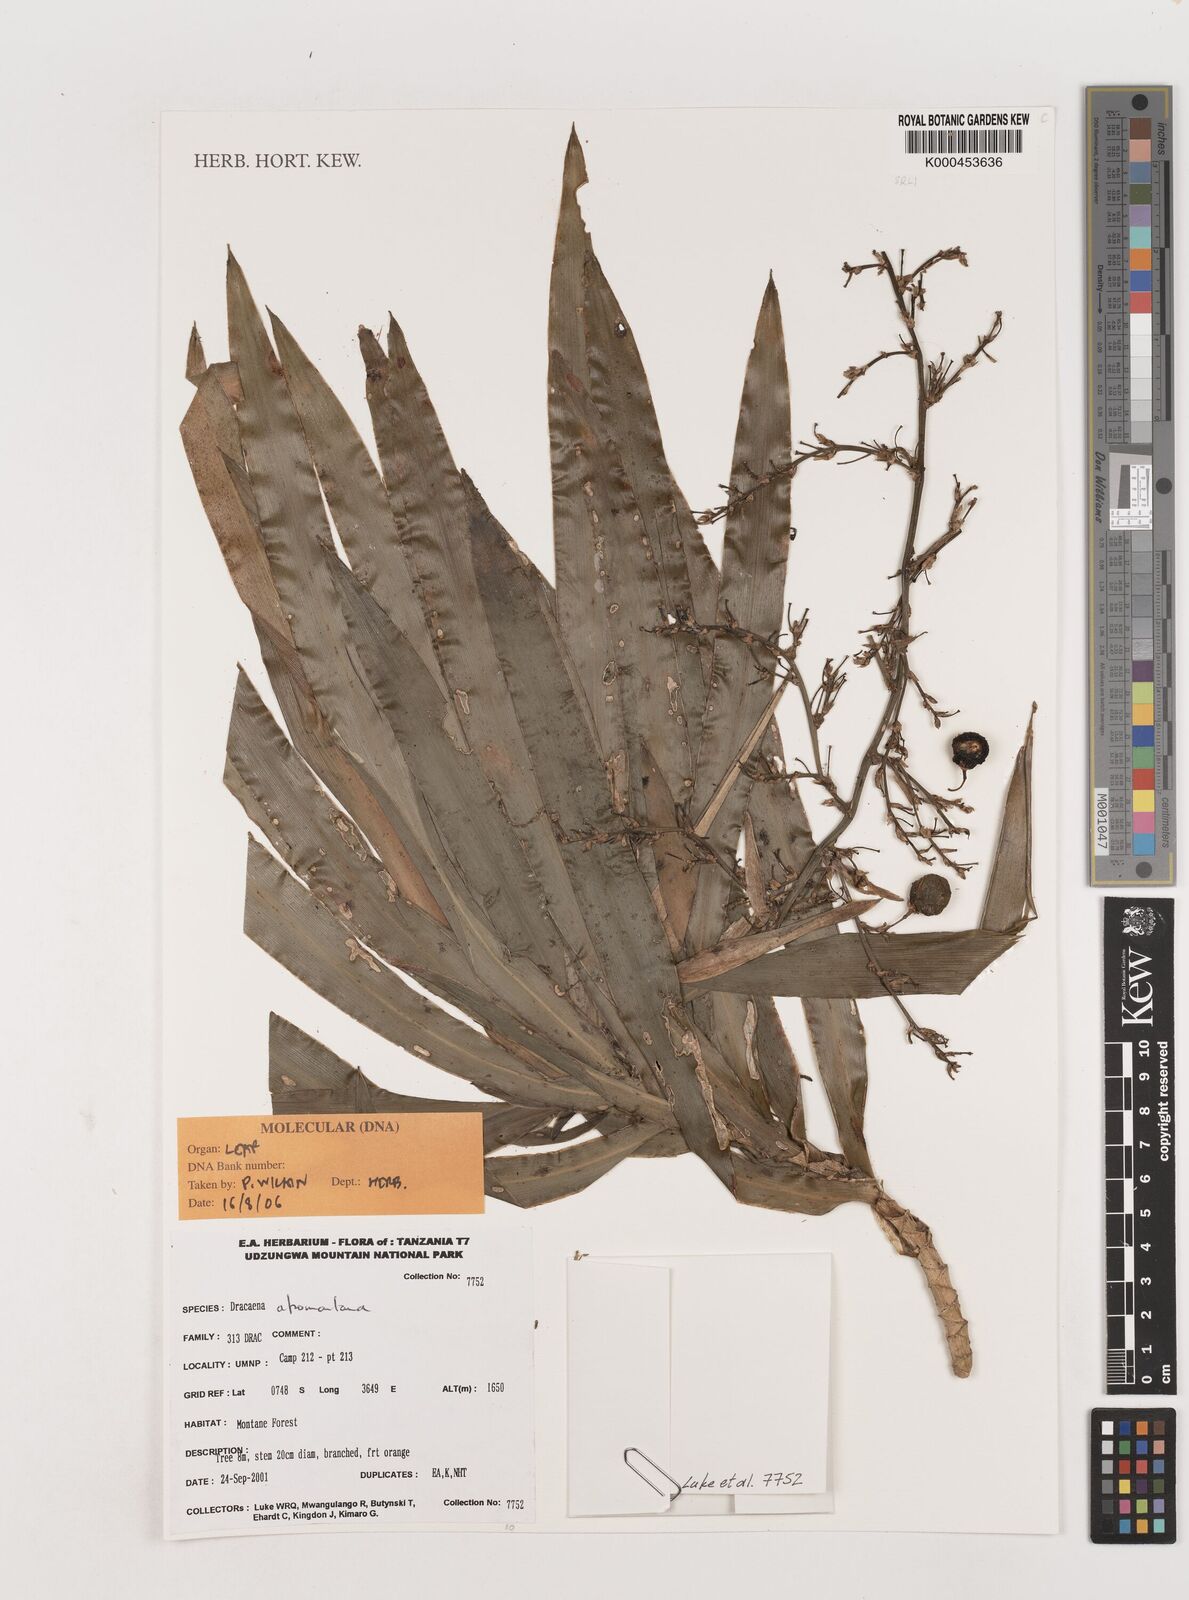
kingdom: Plantae
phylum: Tracheophyta
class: Liliopsida
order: Asparagales
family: Asparagaceae
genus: Dracaena
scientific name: Dracaena afromontana
